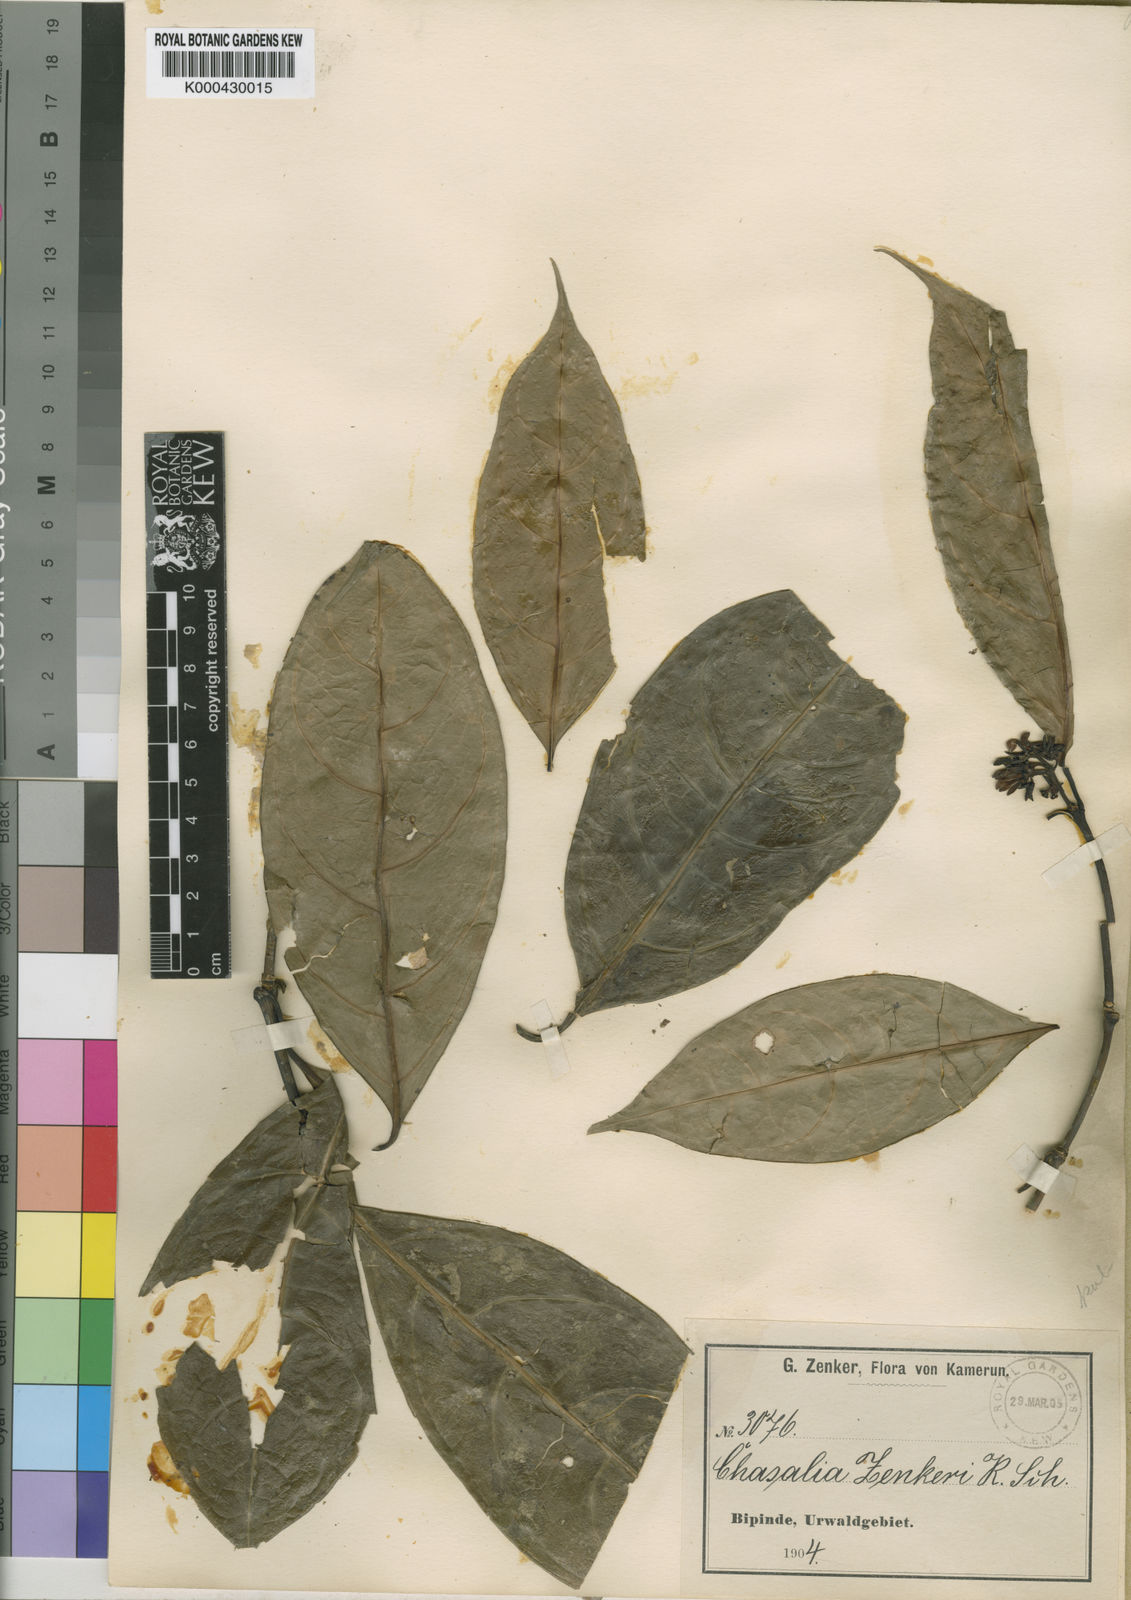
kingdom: Plantae
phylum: Tracheophyta
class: Magnoliopsida
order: Gentianales
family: Rubiaceae
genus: Chassalia
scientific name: Chassalia zenkeri
